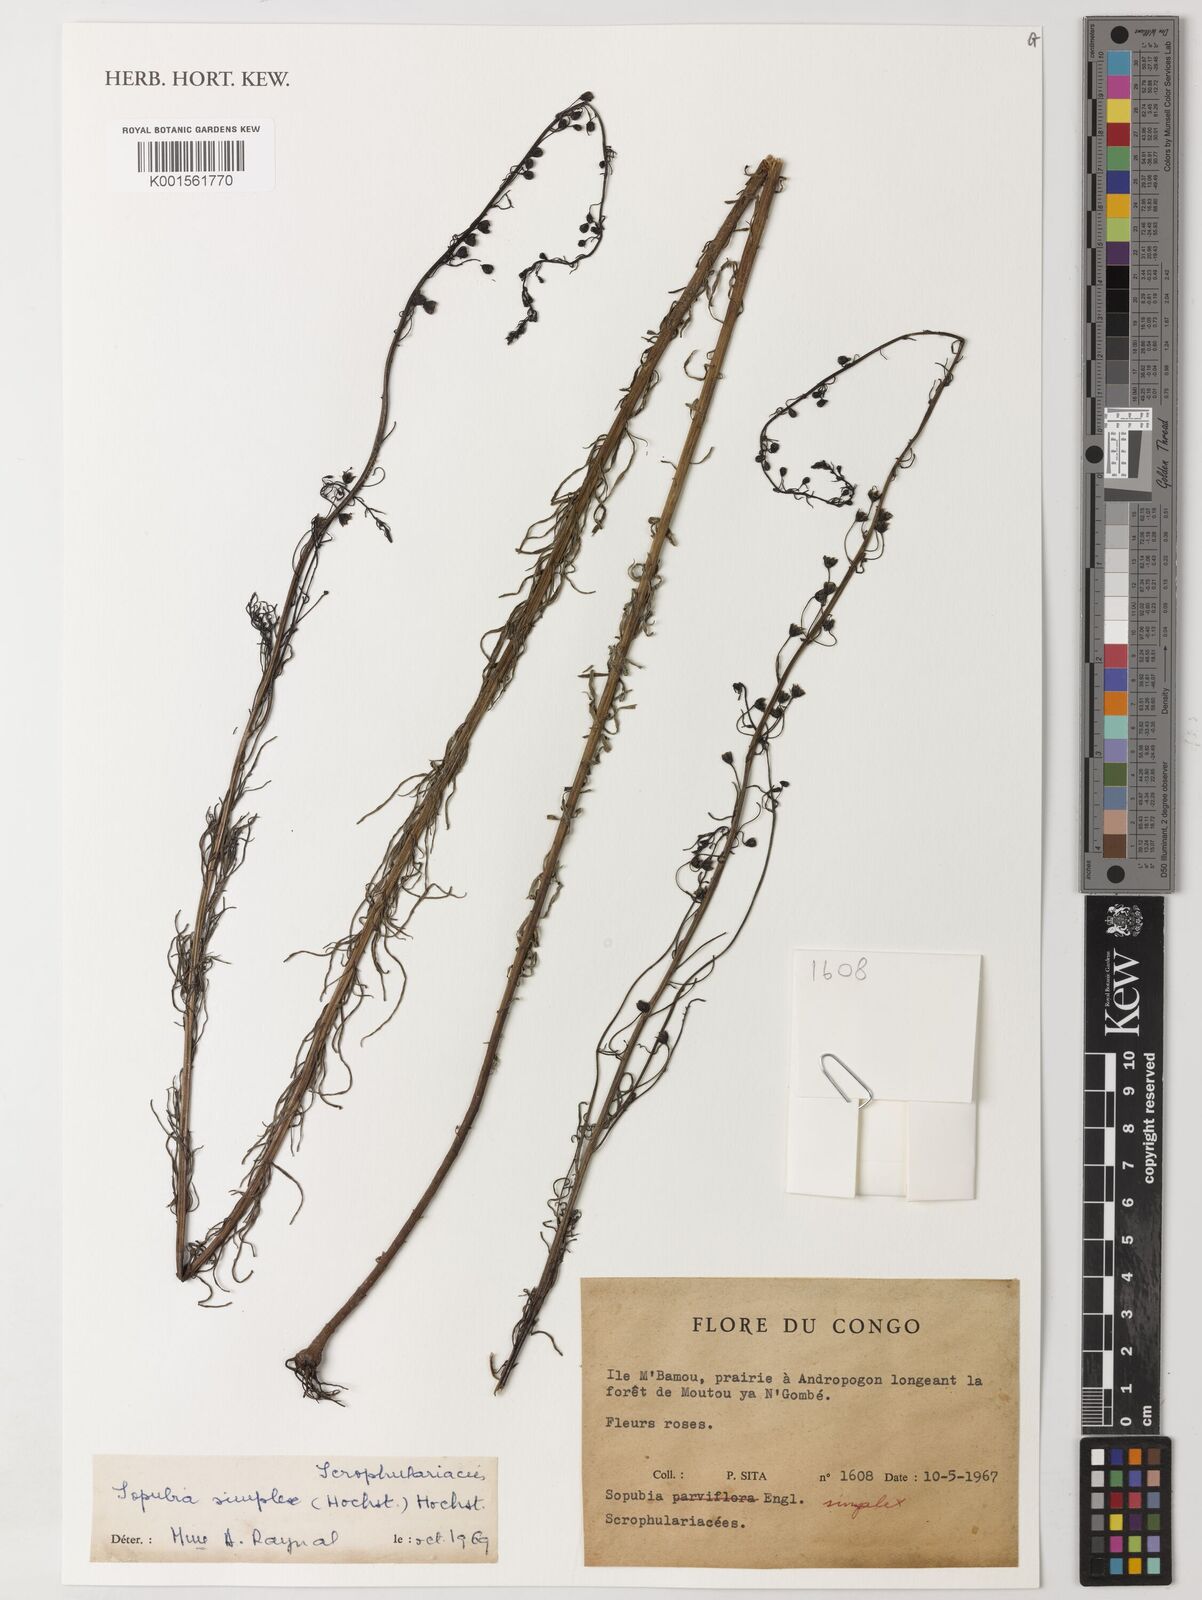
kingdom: Plantae
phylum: Tracheophyta
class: Magnoliopsida
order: Lamiales
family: Orobanchaceae
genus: Sopubia
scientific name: Sopubia simplex
